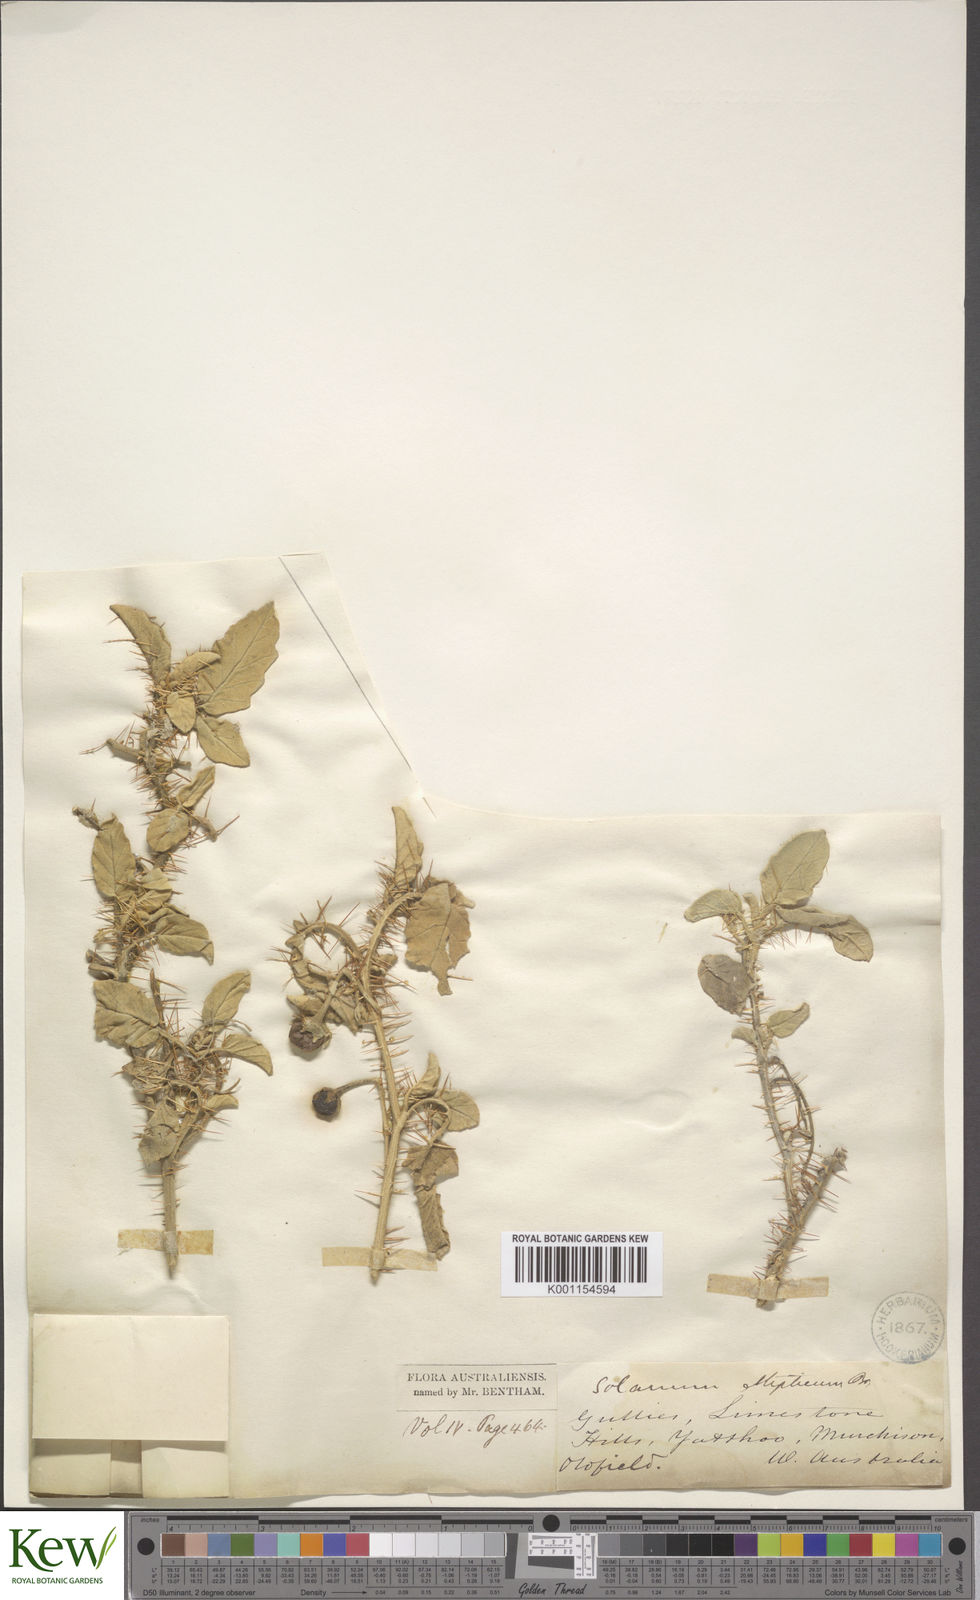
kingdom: Plantae
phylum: Tracheophyta
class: Magnoliopsida
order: Solanales
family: Solanaceae
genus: Solanum
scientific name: Solanum ellipticum
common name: Potato-bush
